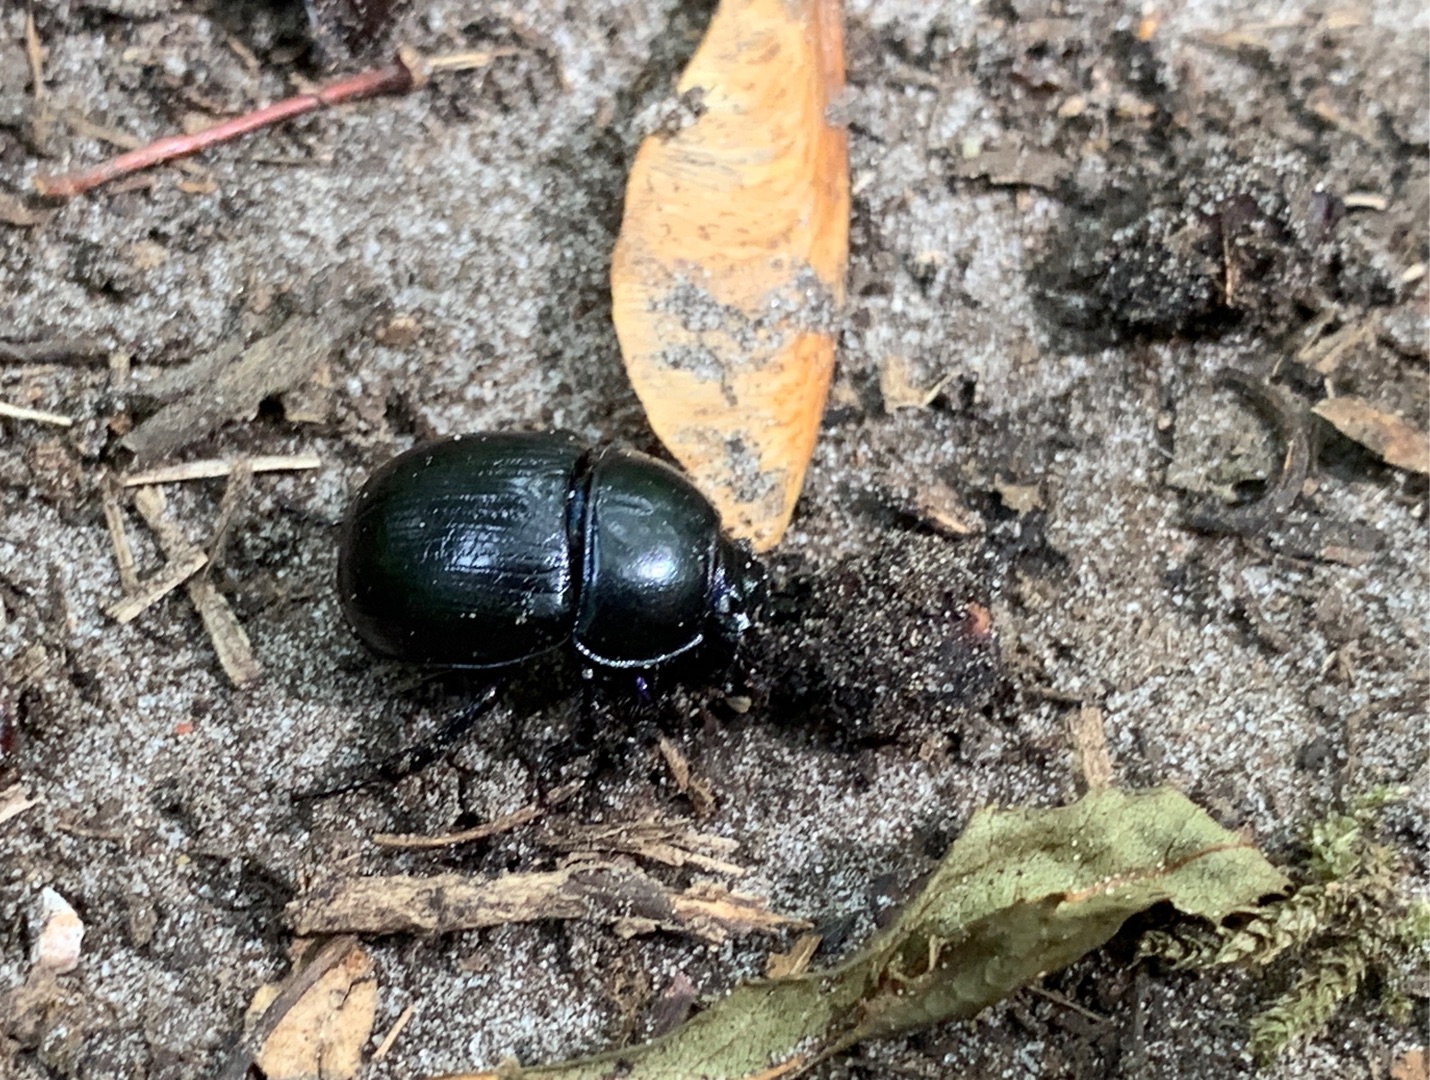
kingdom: Animalia
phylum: Arthropoda
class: Insecta
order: Coleoptera
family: Geotrupidae
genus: Anoplotrupes
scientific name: Anoplotrupes stercorosus
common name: Skovskarnbasse
